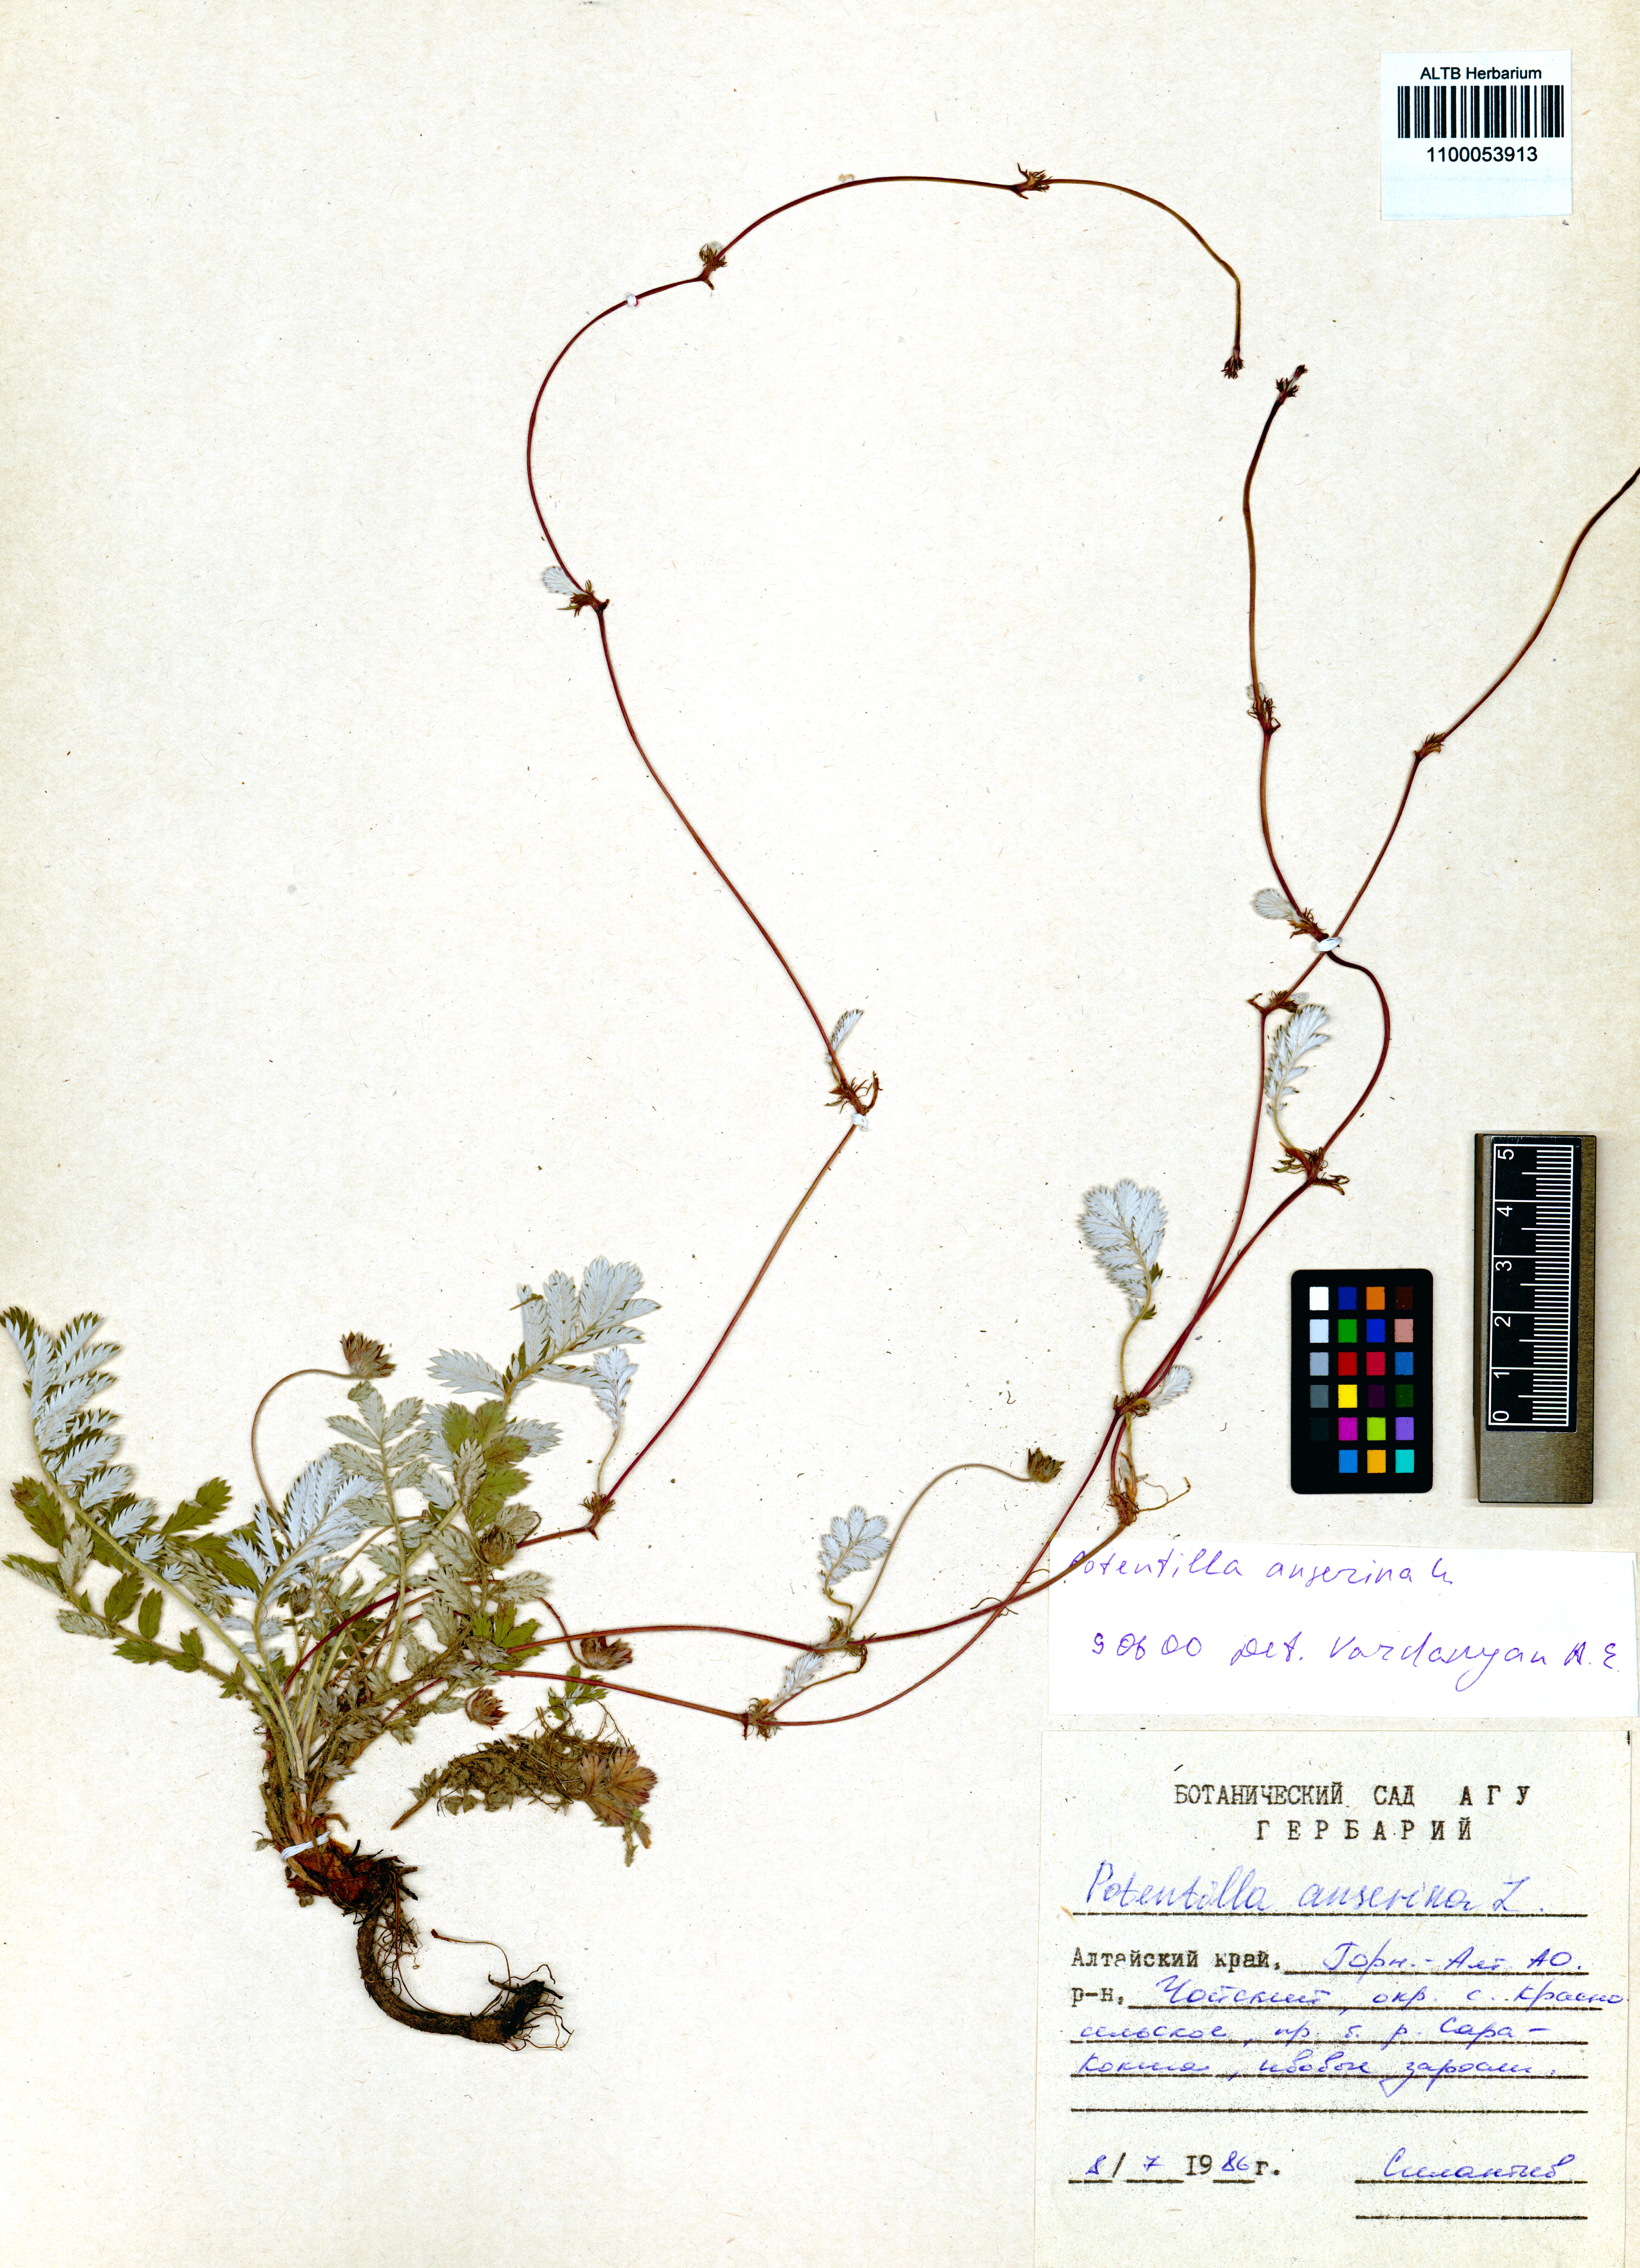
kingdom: Plantae
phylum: Tracheophyta
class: Magnoliopsida
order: Rosales
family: Rosaceae
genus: Argentina
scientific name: Argentina anserina
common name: Common silverweed
